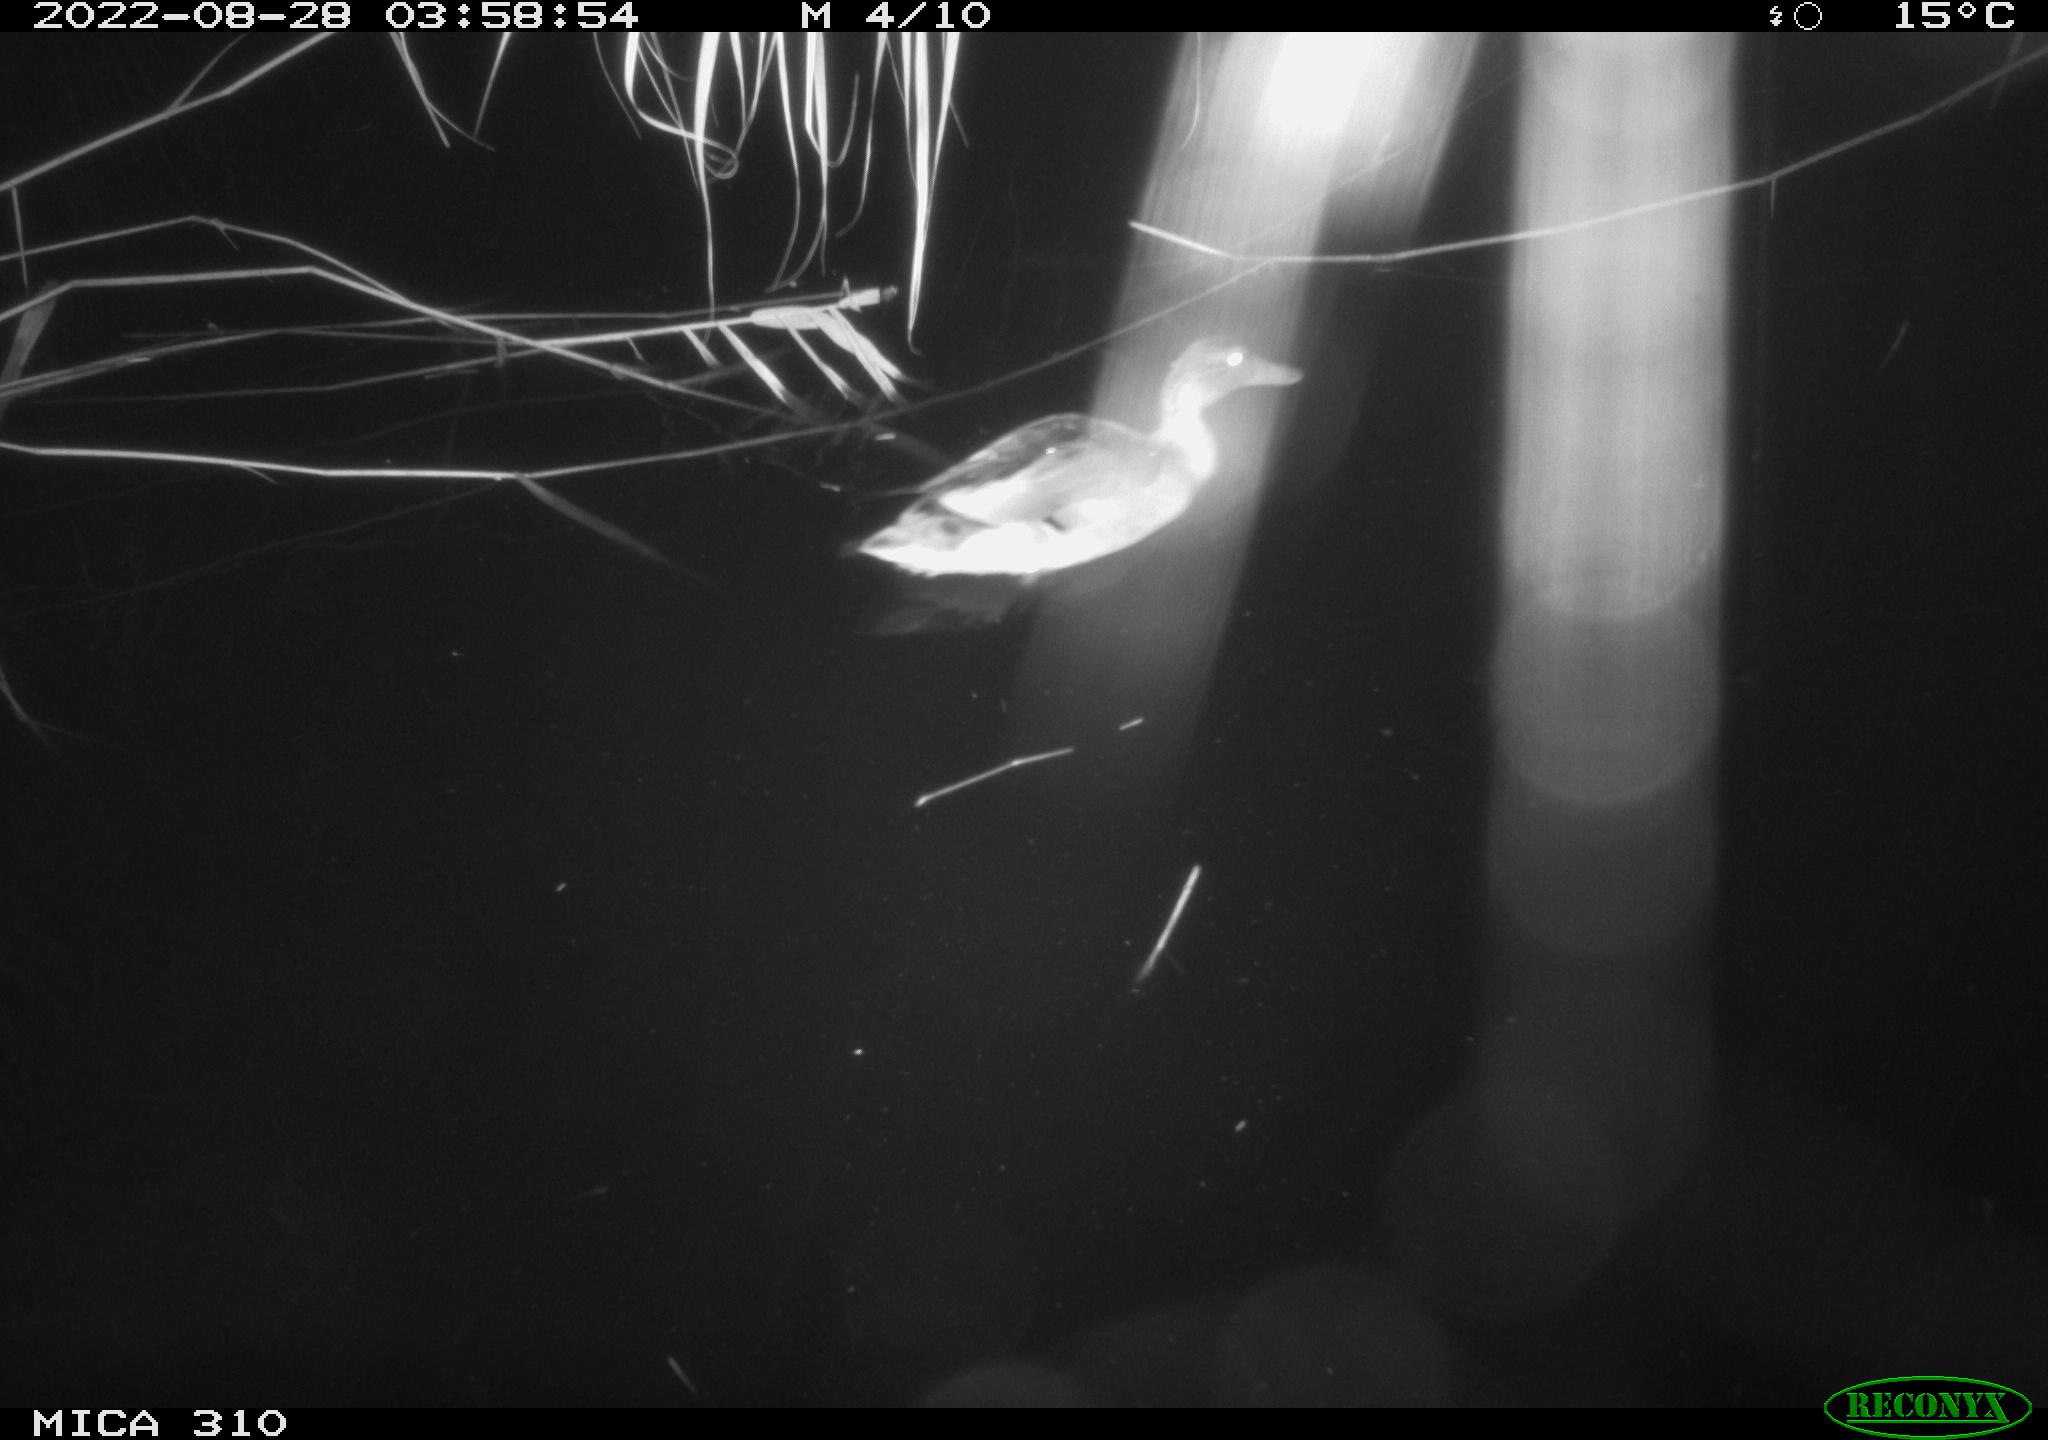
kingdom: Animalia
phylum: Chordata
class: Aves
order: Anseriformes
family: Anatidae
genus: Anas
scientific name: Anas platyrhynchos
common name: Mallard
